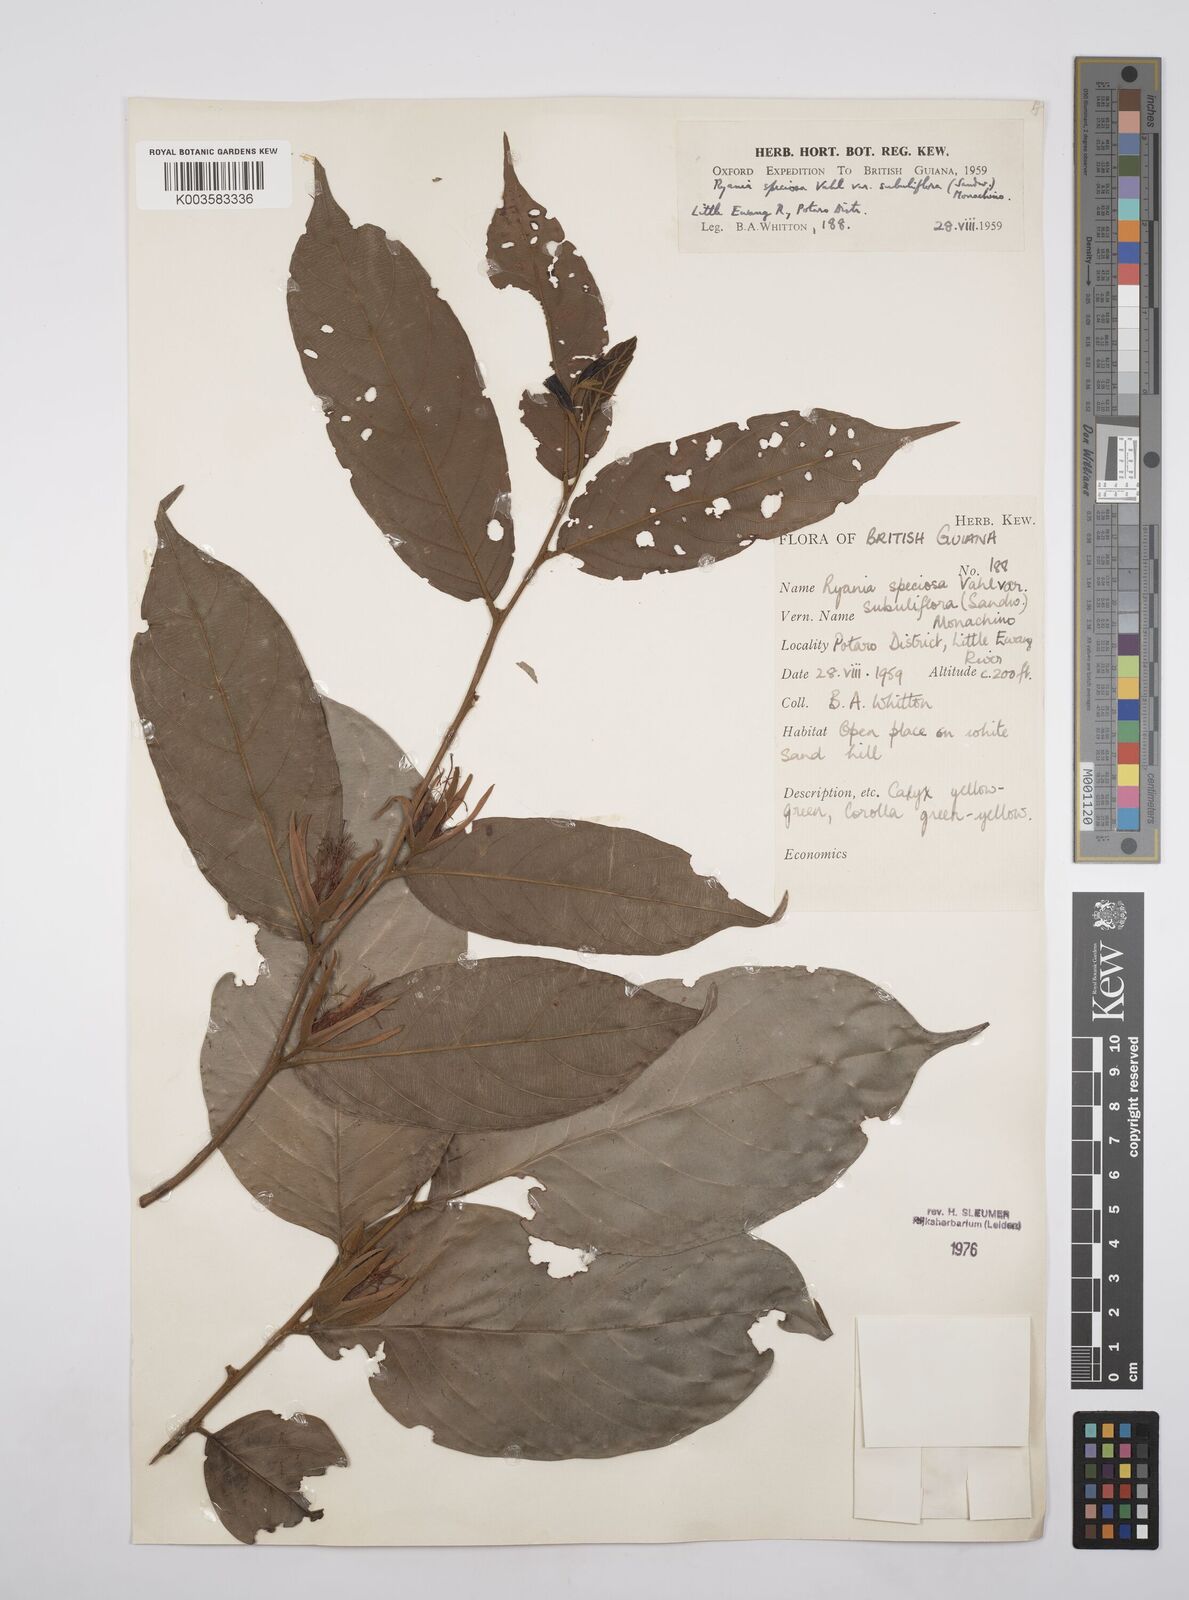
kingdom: Plantae
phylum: Tracheophyta
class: Magnoliopsida
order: Malpighiales
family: Salicaceae
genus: Ryania
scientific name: Ryania speciosa
